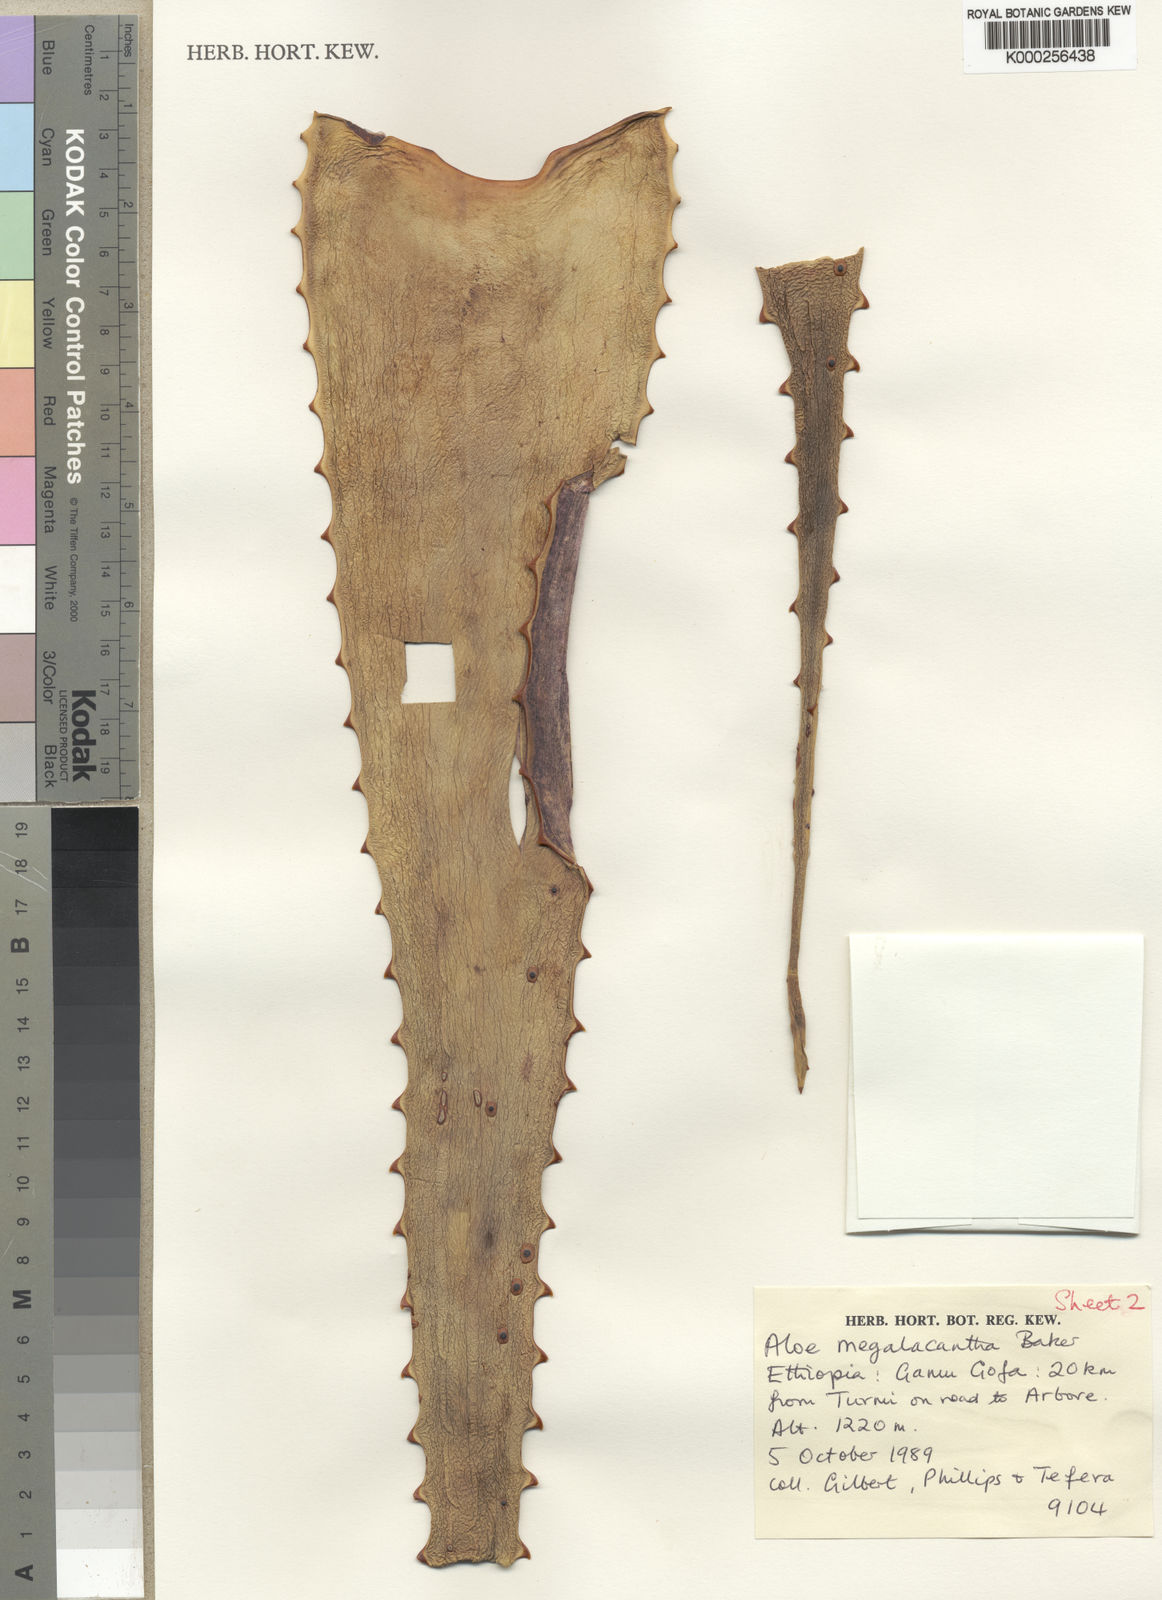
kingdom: Plantae
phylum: Tracheophyta
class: Liliopsida
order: Asparagales
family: Asphodelaceae
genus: Aloe
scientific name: Aloe gilbertii
